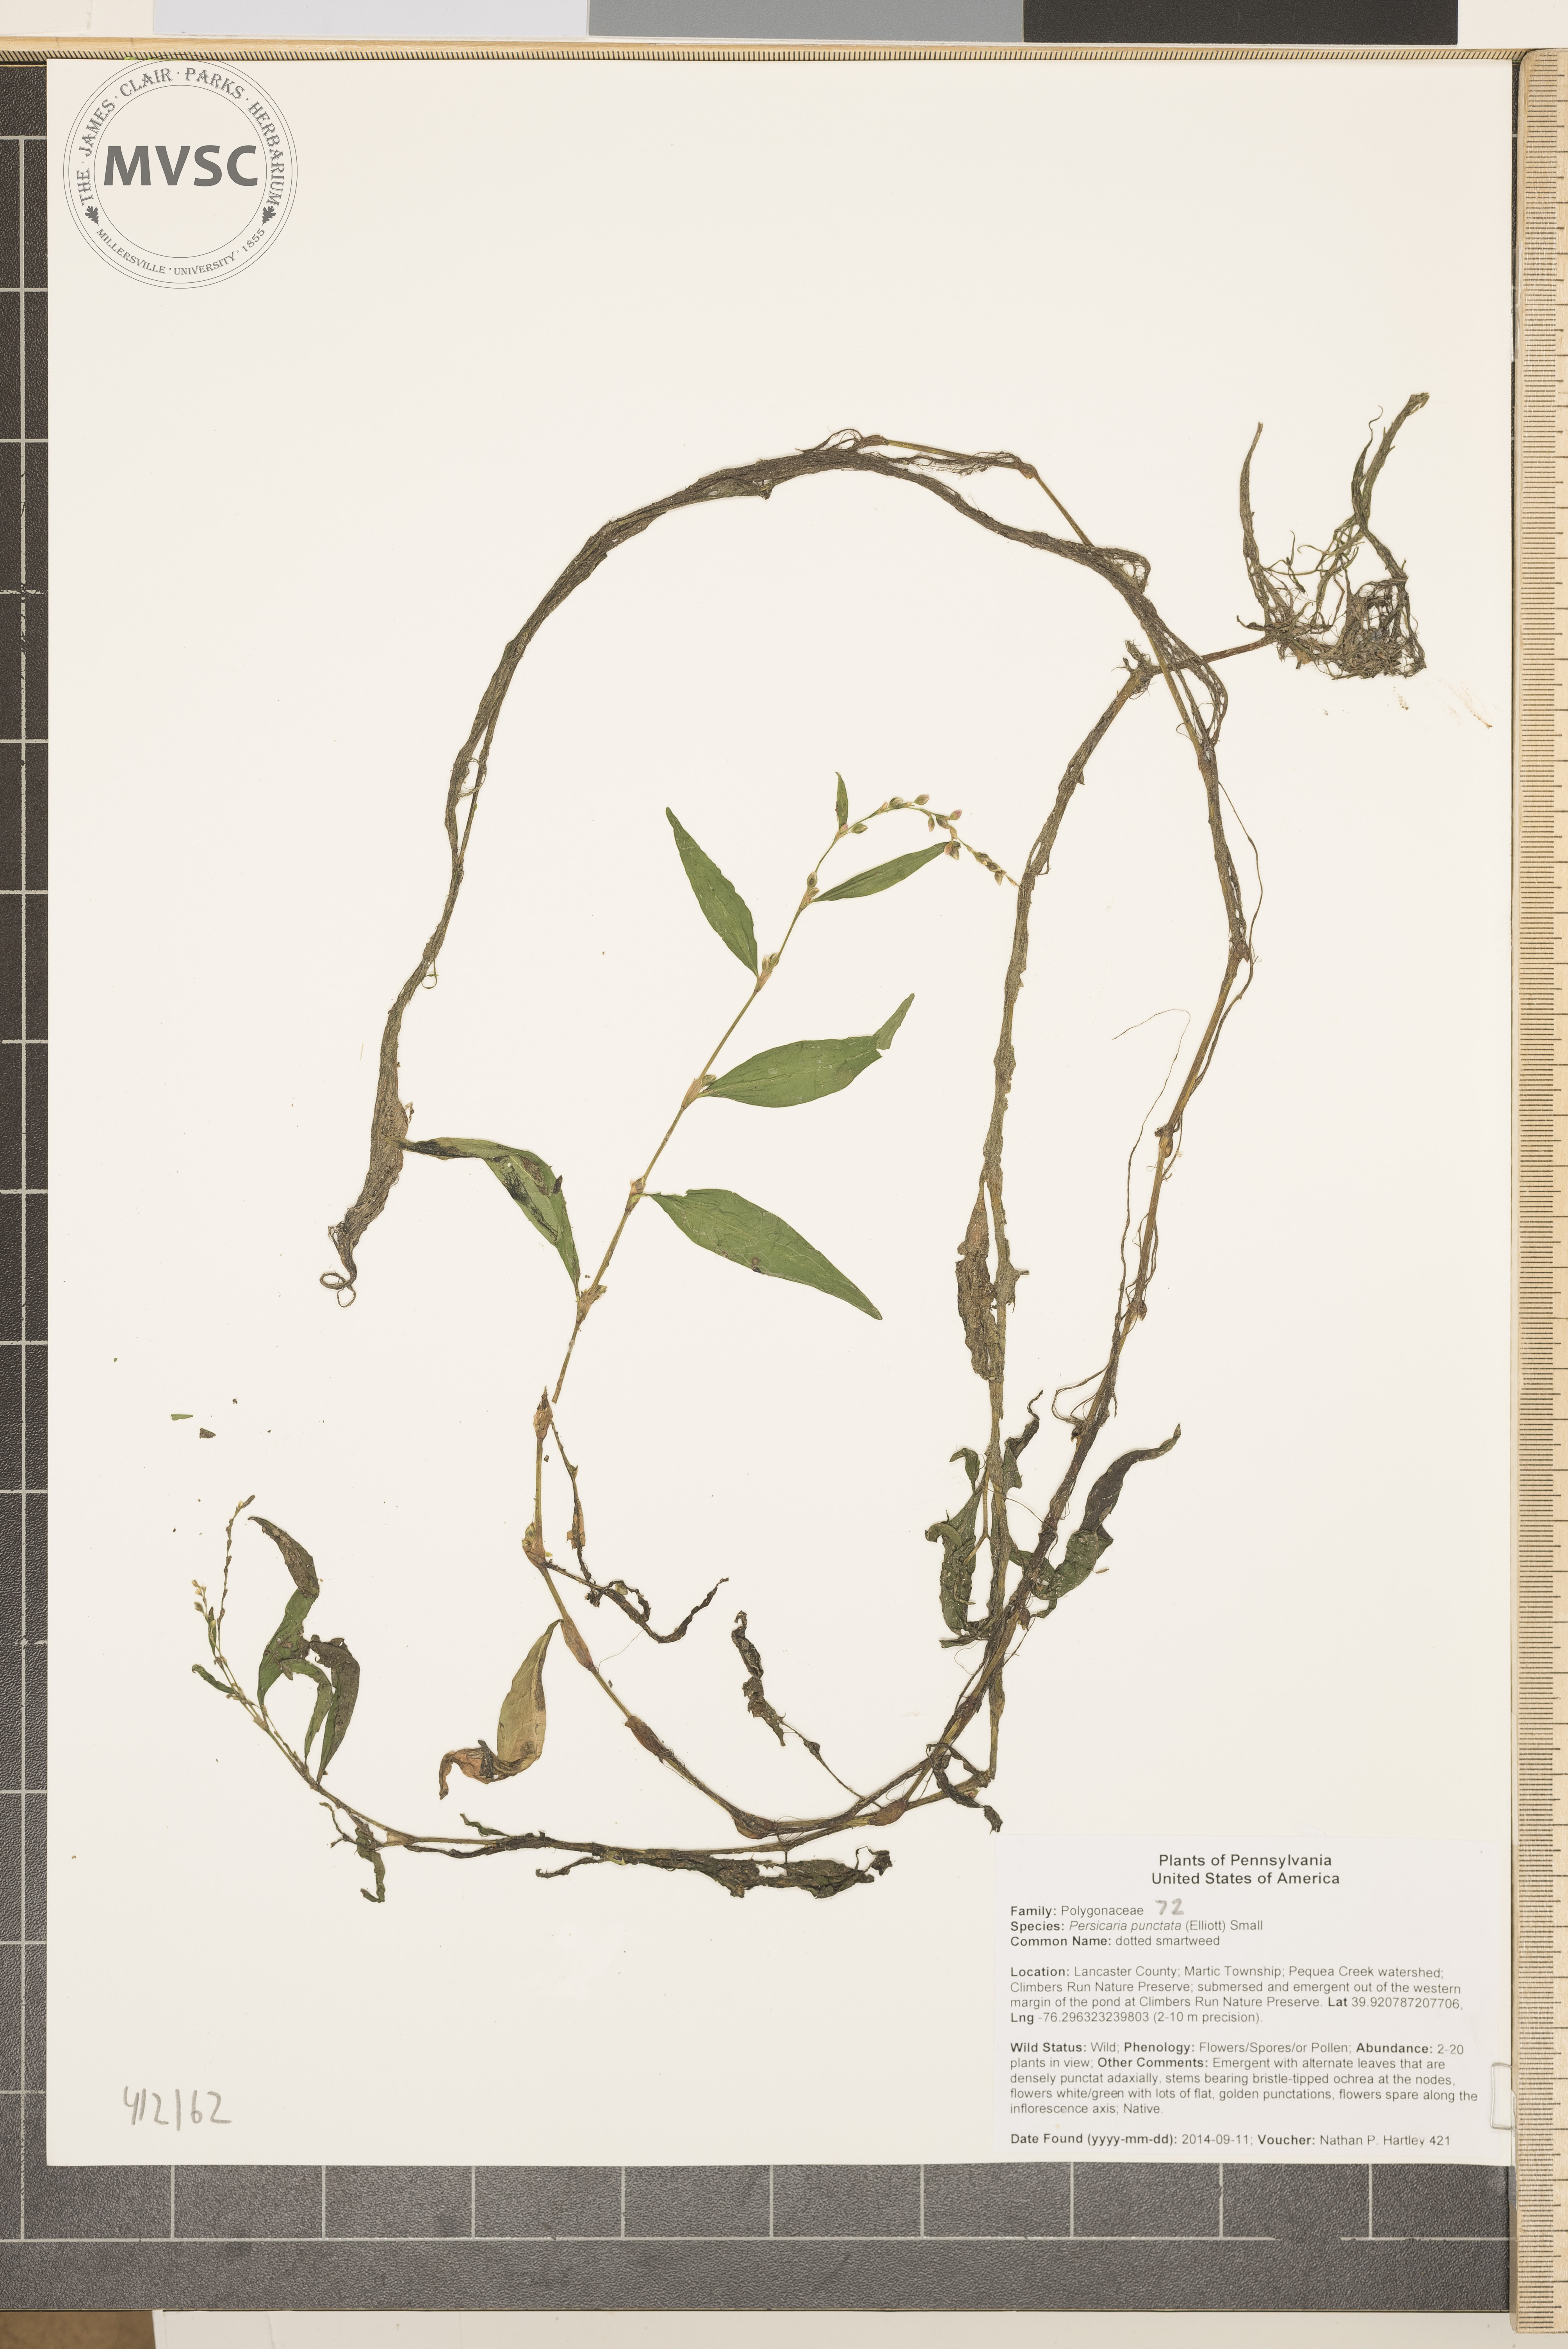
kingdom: Plantae
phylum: Tracheophyta
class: Magnoliopsida
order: Caryophyllales
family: Polygonaceae
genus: Persicaria
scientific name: Persicaria punctata
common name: dotted smartweed
